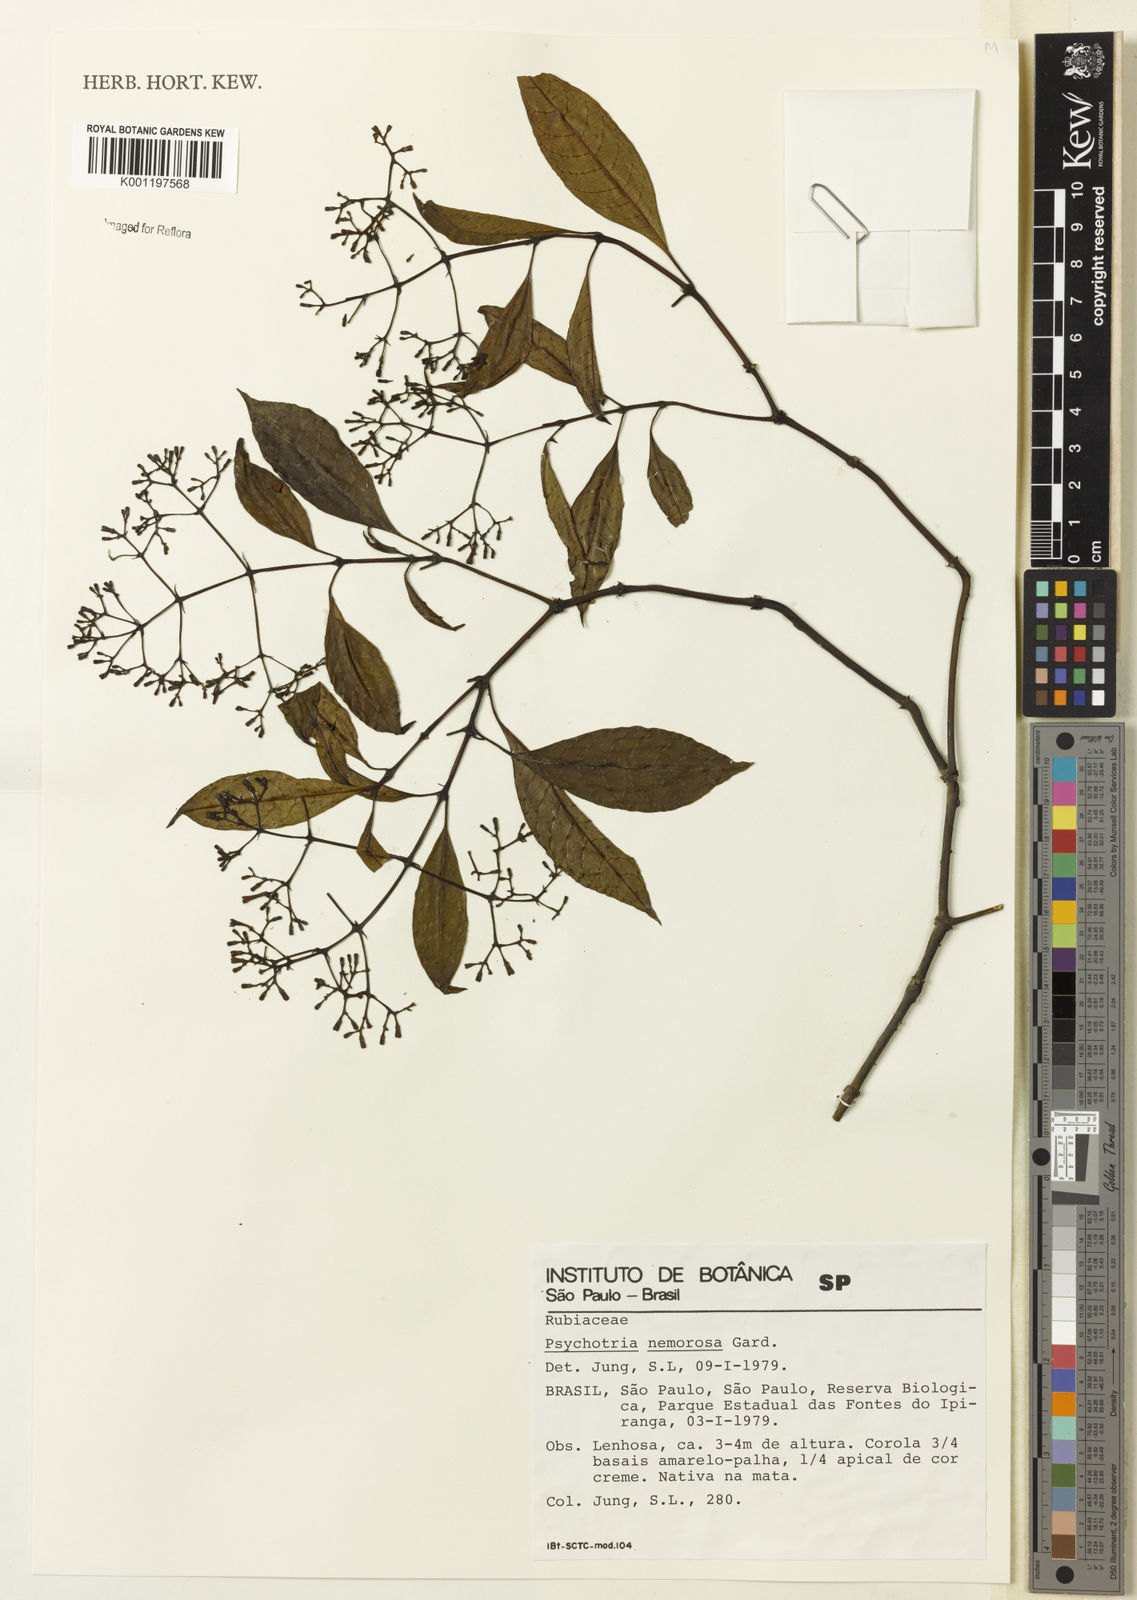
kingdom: Plantae
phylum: Tracheophyta
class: Magnoliopsida
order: Gentianales
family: Rubiaceae
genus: Psychotria
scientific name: Psychotria nemorosa
